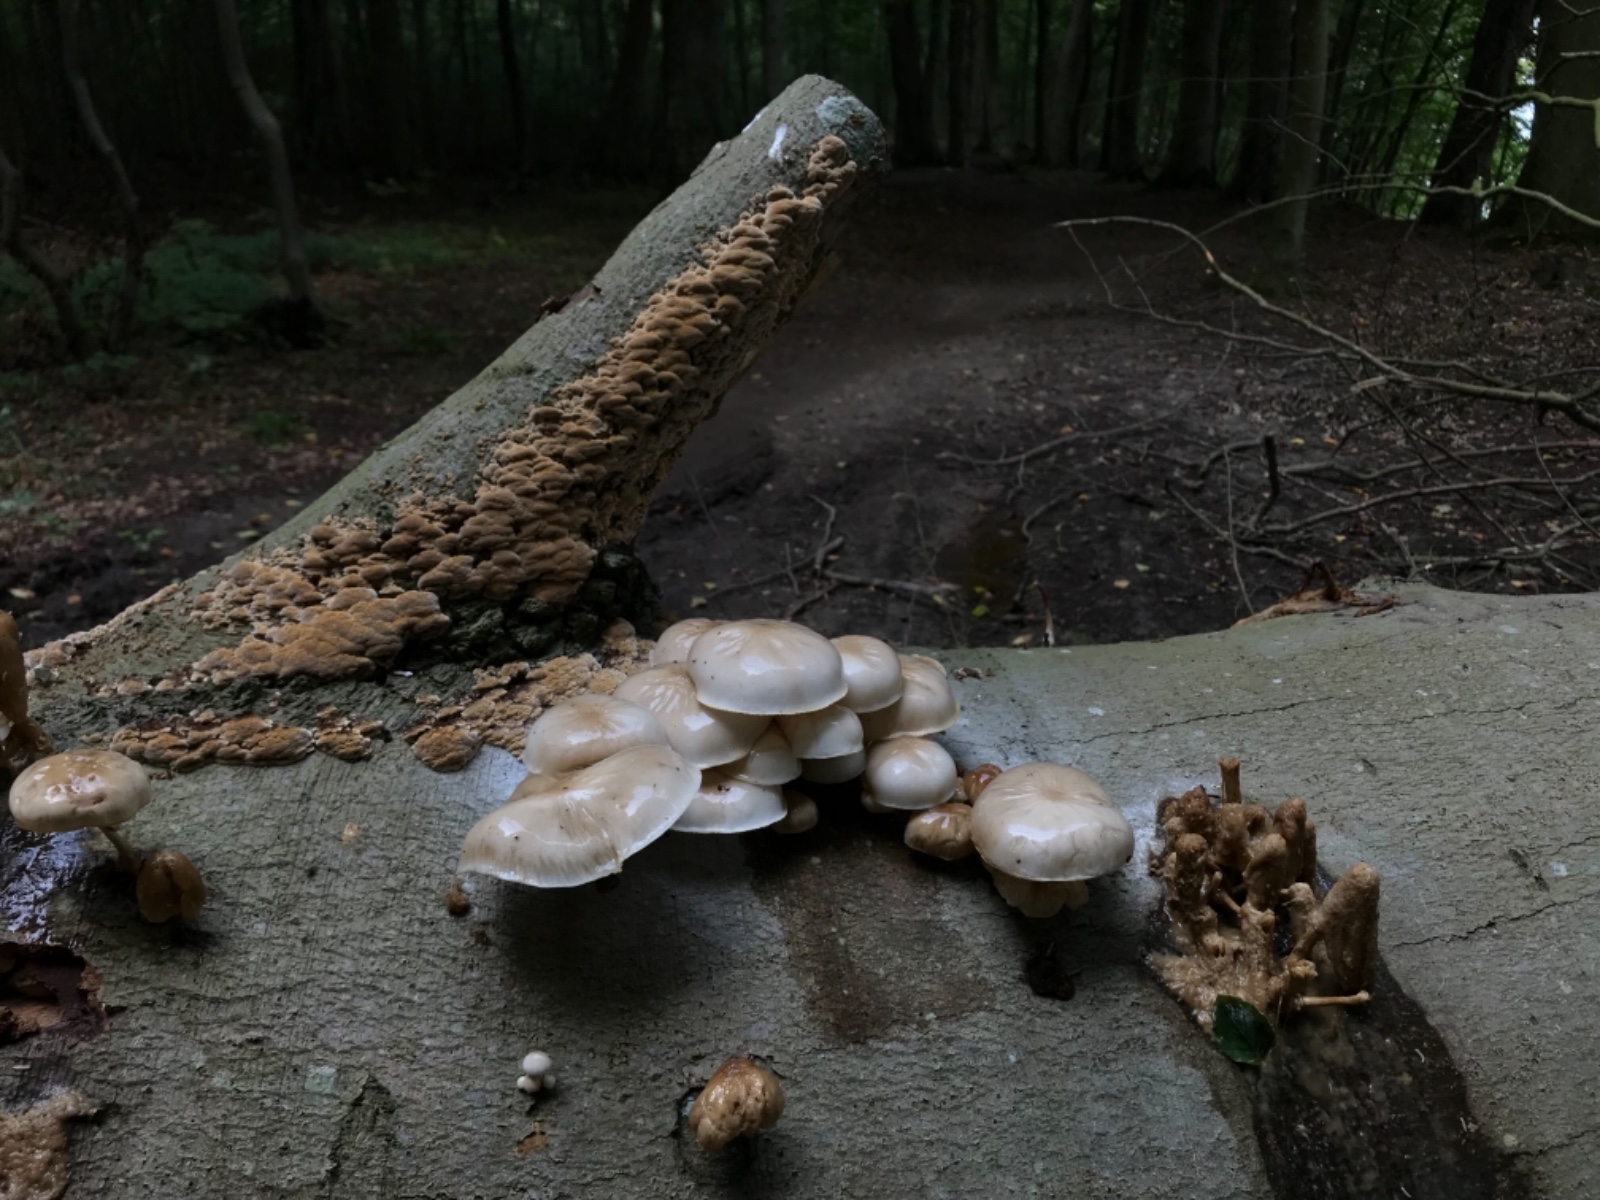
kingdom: Fungi
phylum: Basidiomycota
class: Agaricomycetes
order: Agaricales
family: Physalacriaceae
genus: Mucidula
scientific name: Mucidula mucida
